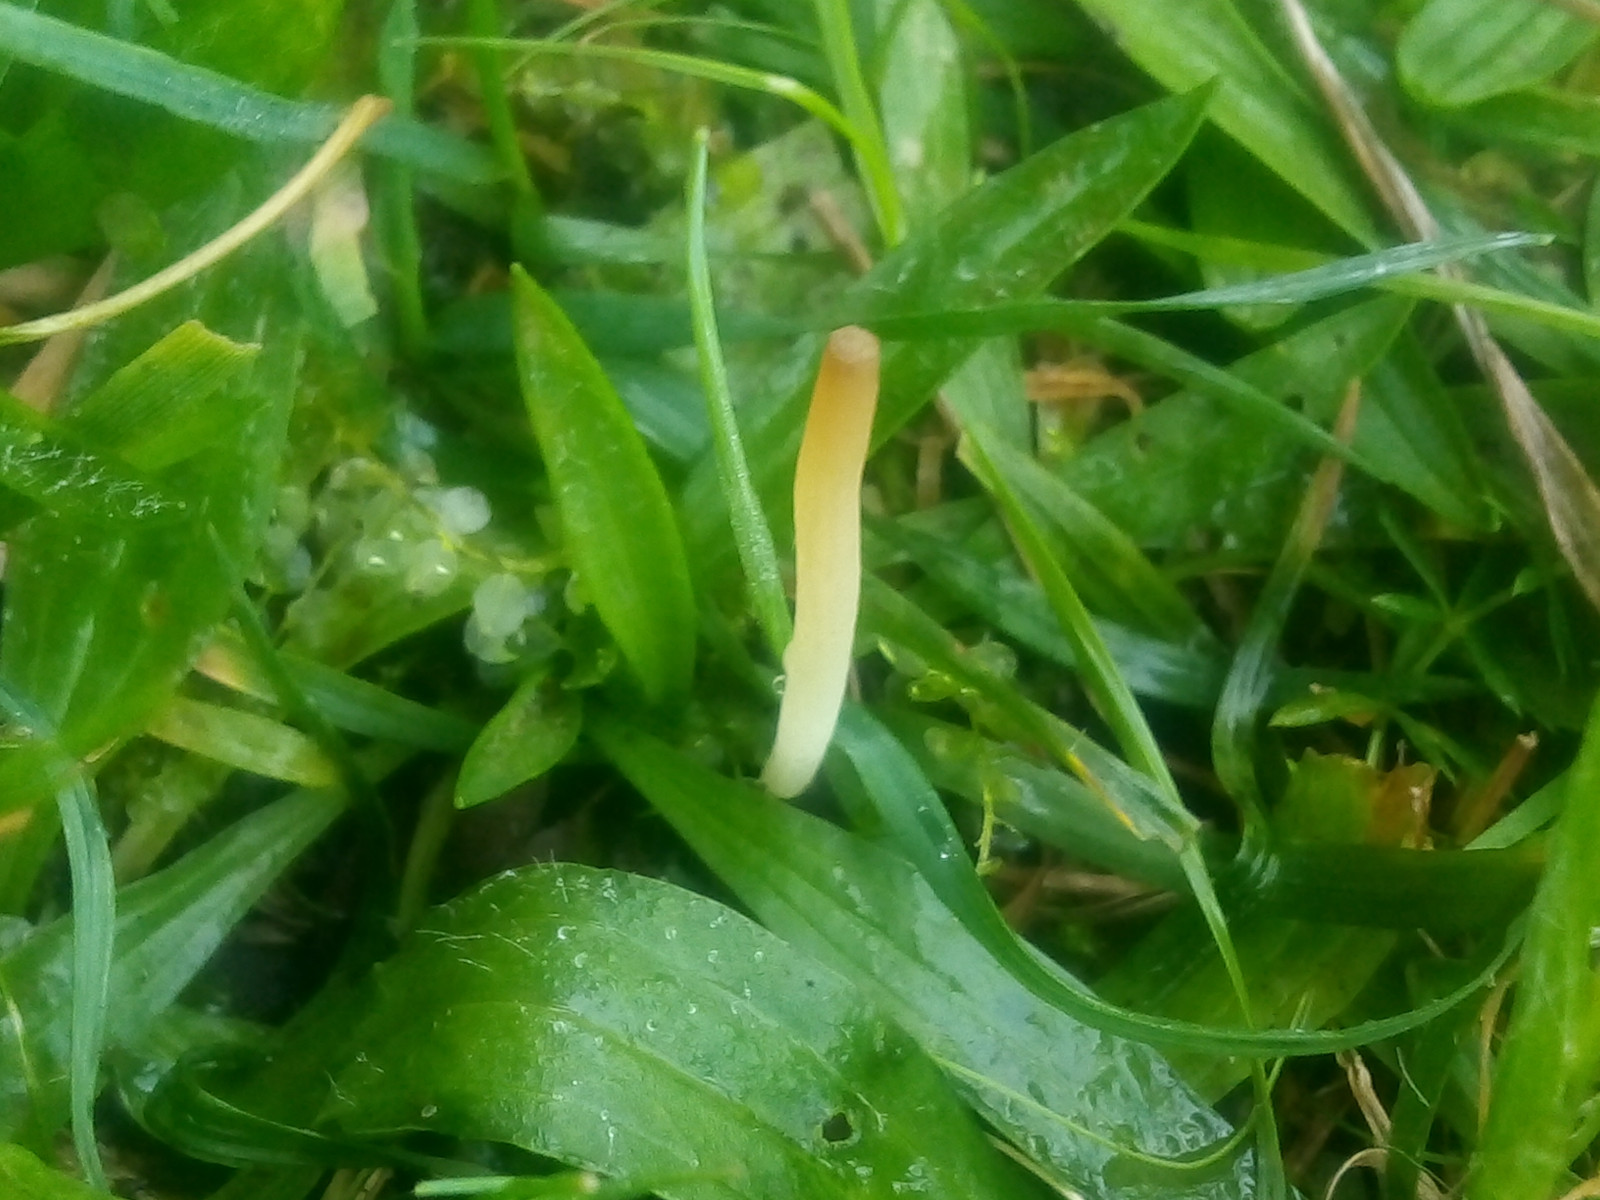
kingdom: Fungi
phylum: Basidiomycota
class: Agaricomycetes
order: Agaricales
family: Clavariaceae
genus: Clavaria
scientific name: Clavaria
